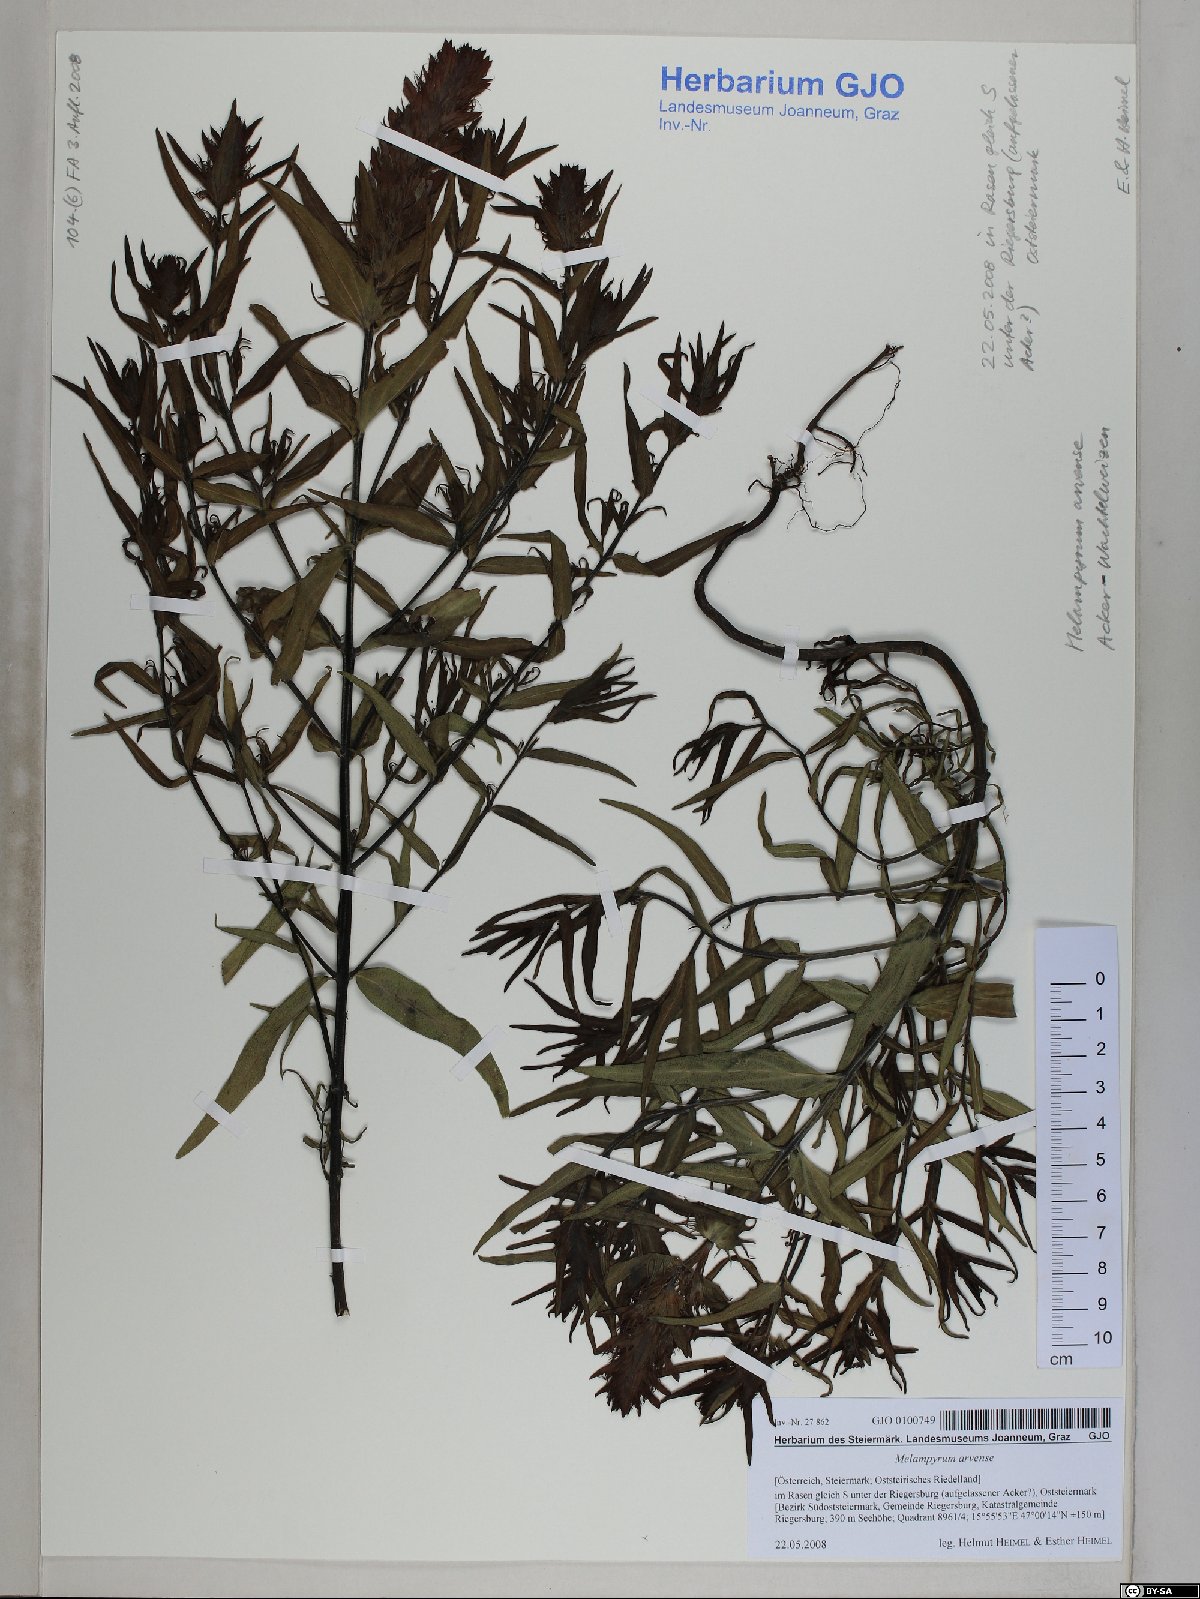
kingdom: Plantae
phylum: Tracheophyta
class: Magnoliopsida
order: Lamiales
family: Orobanchaceae
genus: Melampyrum
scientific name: Melampyrum arvense
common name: Field cow-wheat
